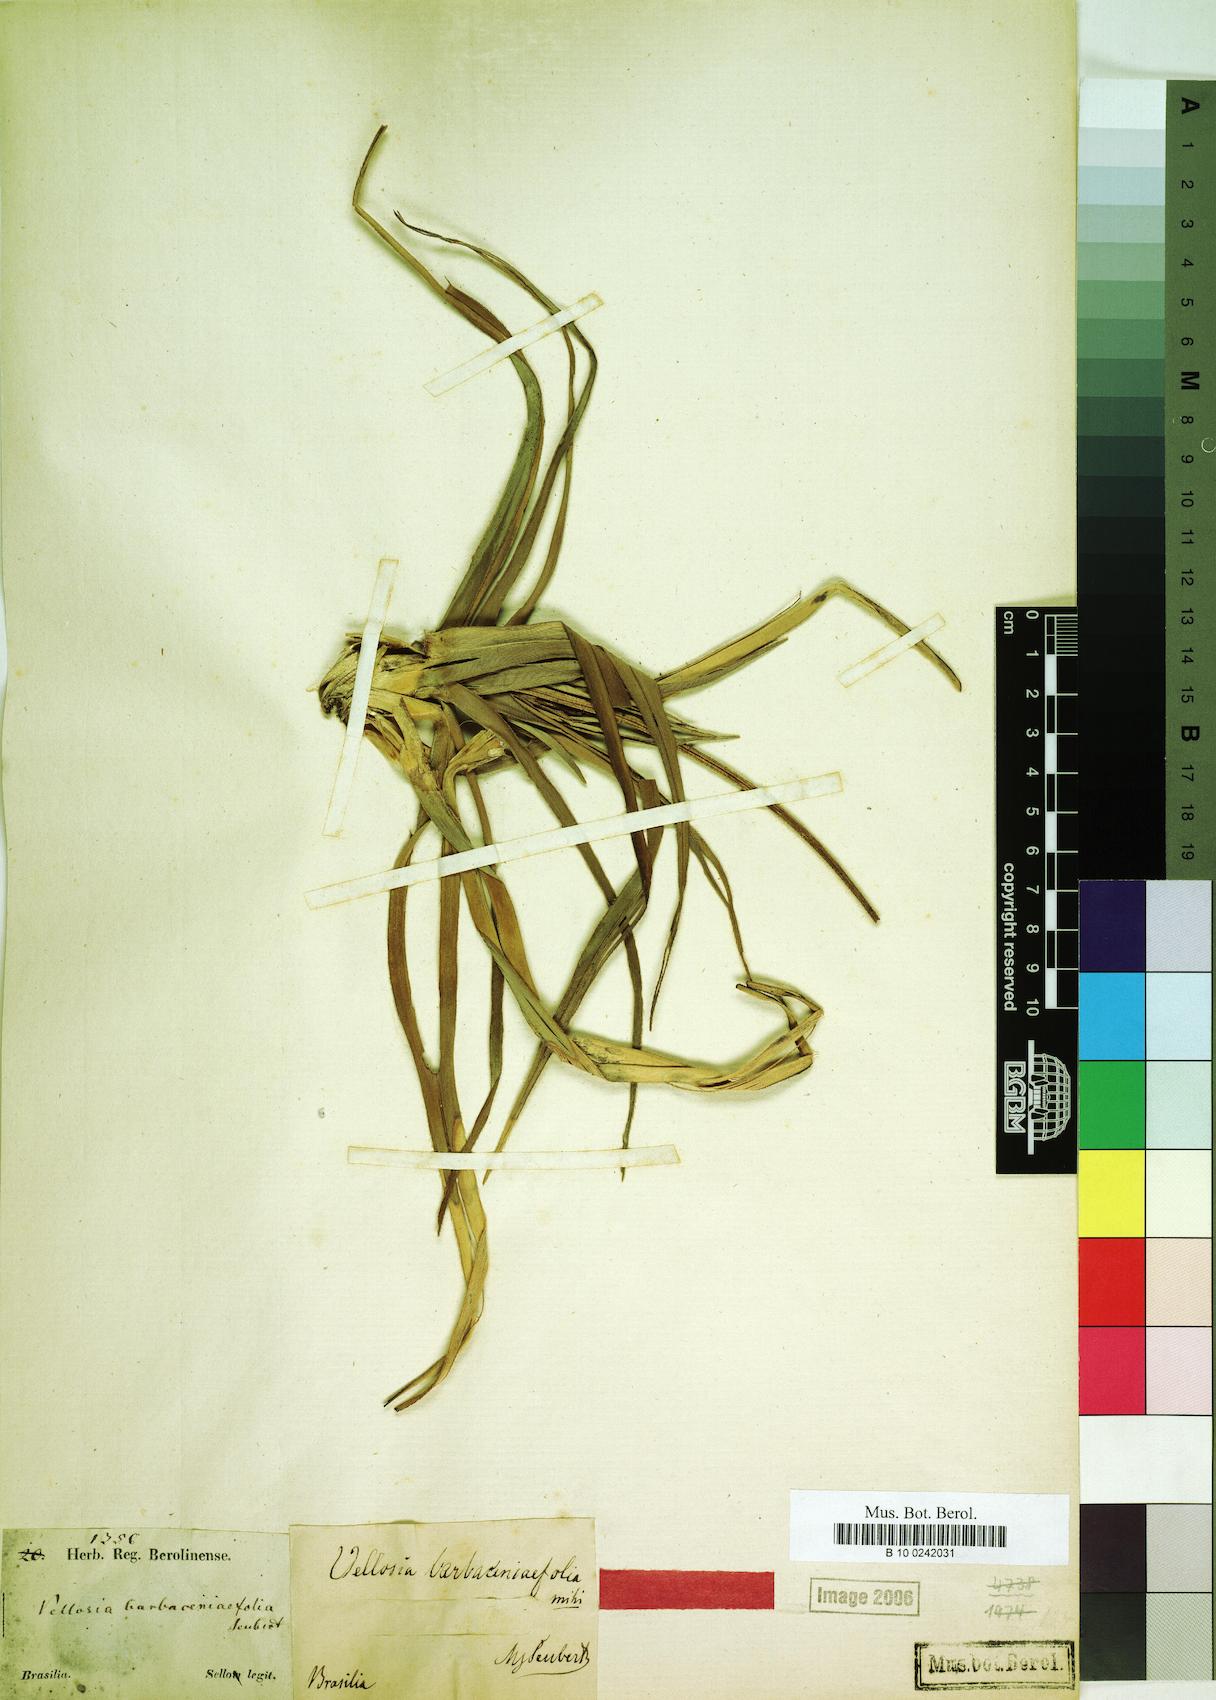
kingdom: Plantae
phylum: Tracheophyta
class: Liliopsida
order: Pandanales
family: Velloziaceae
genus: Vellozia
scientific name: Vellozia barbaceniifolia
